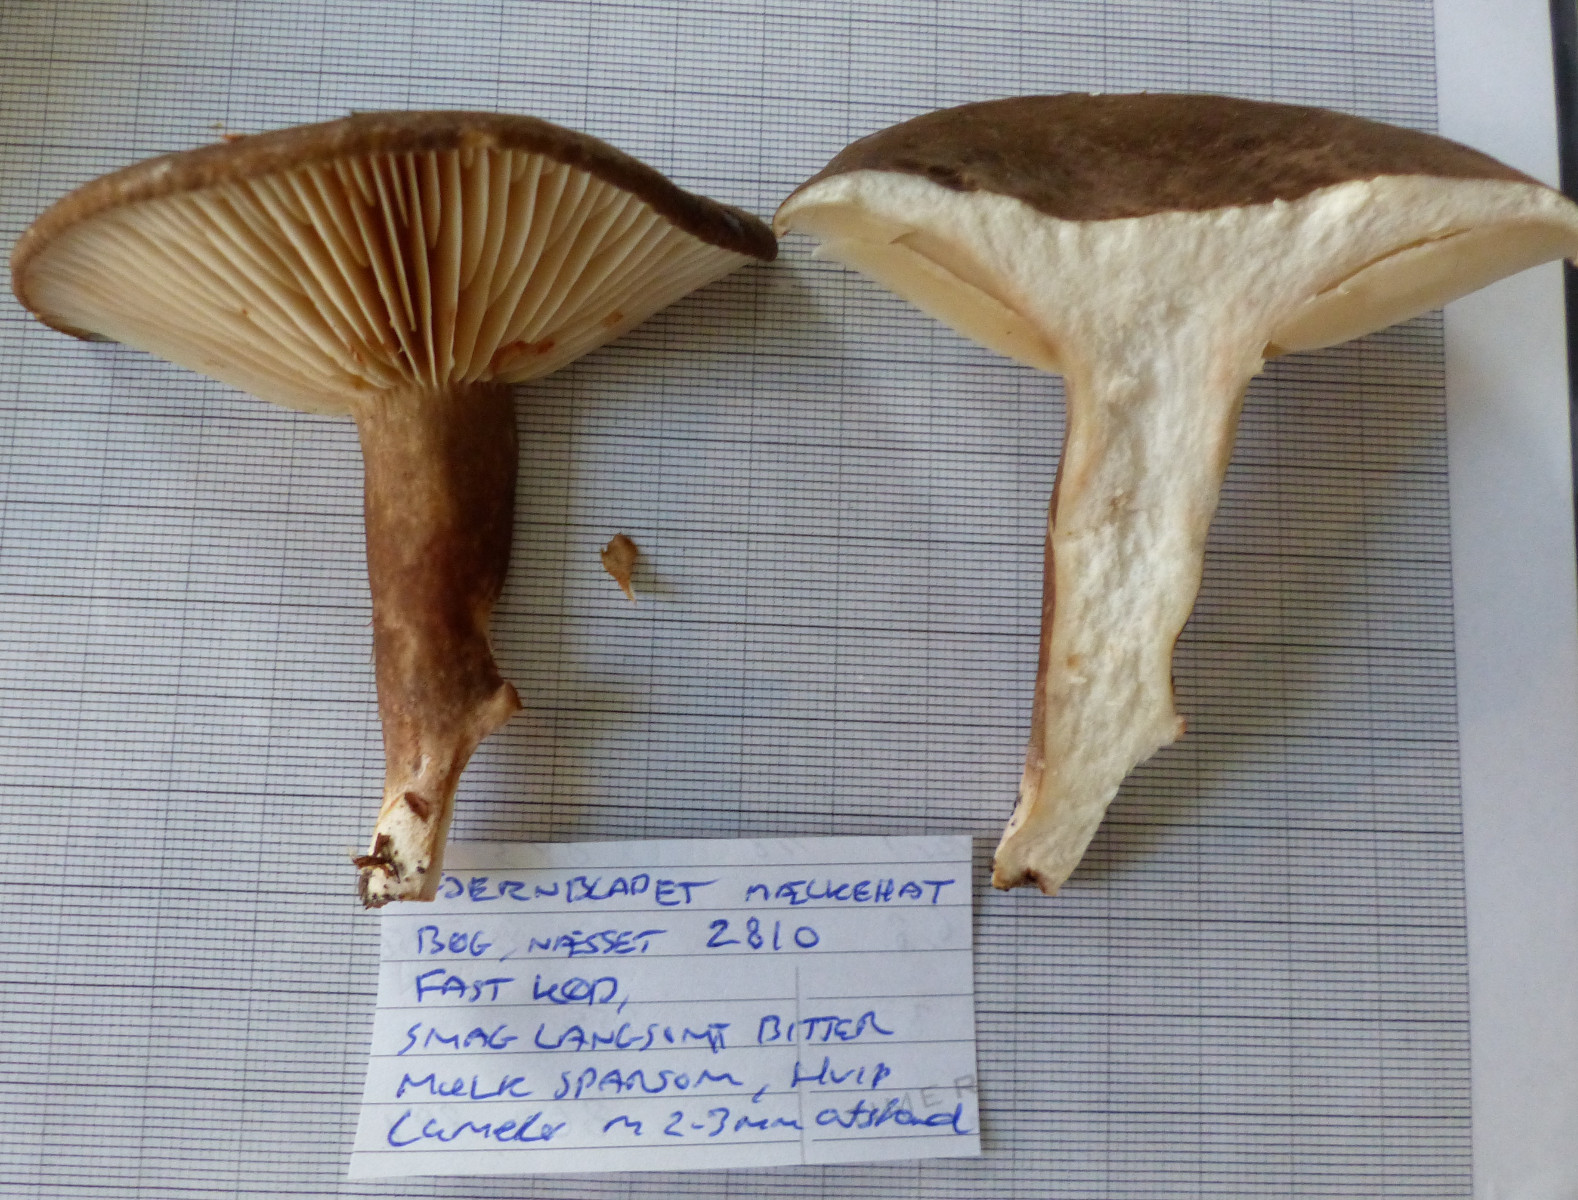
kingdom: Fungi
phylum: Basidiomycota
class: Agaricomycetes
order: Russulales
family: Russulaceae
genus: Lactarius
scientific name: Lactarius romagnesii
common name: fjernbladet mælkehat
